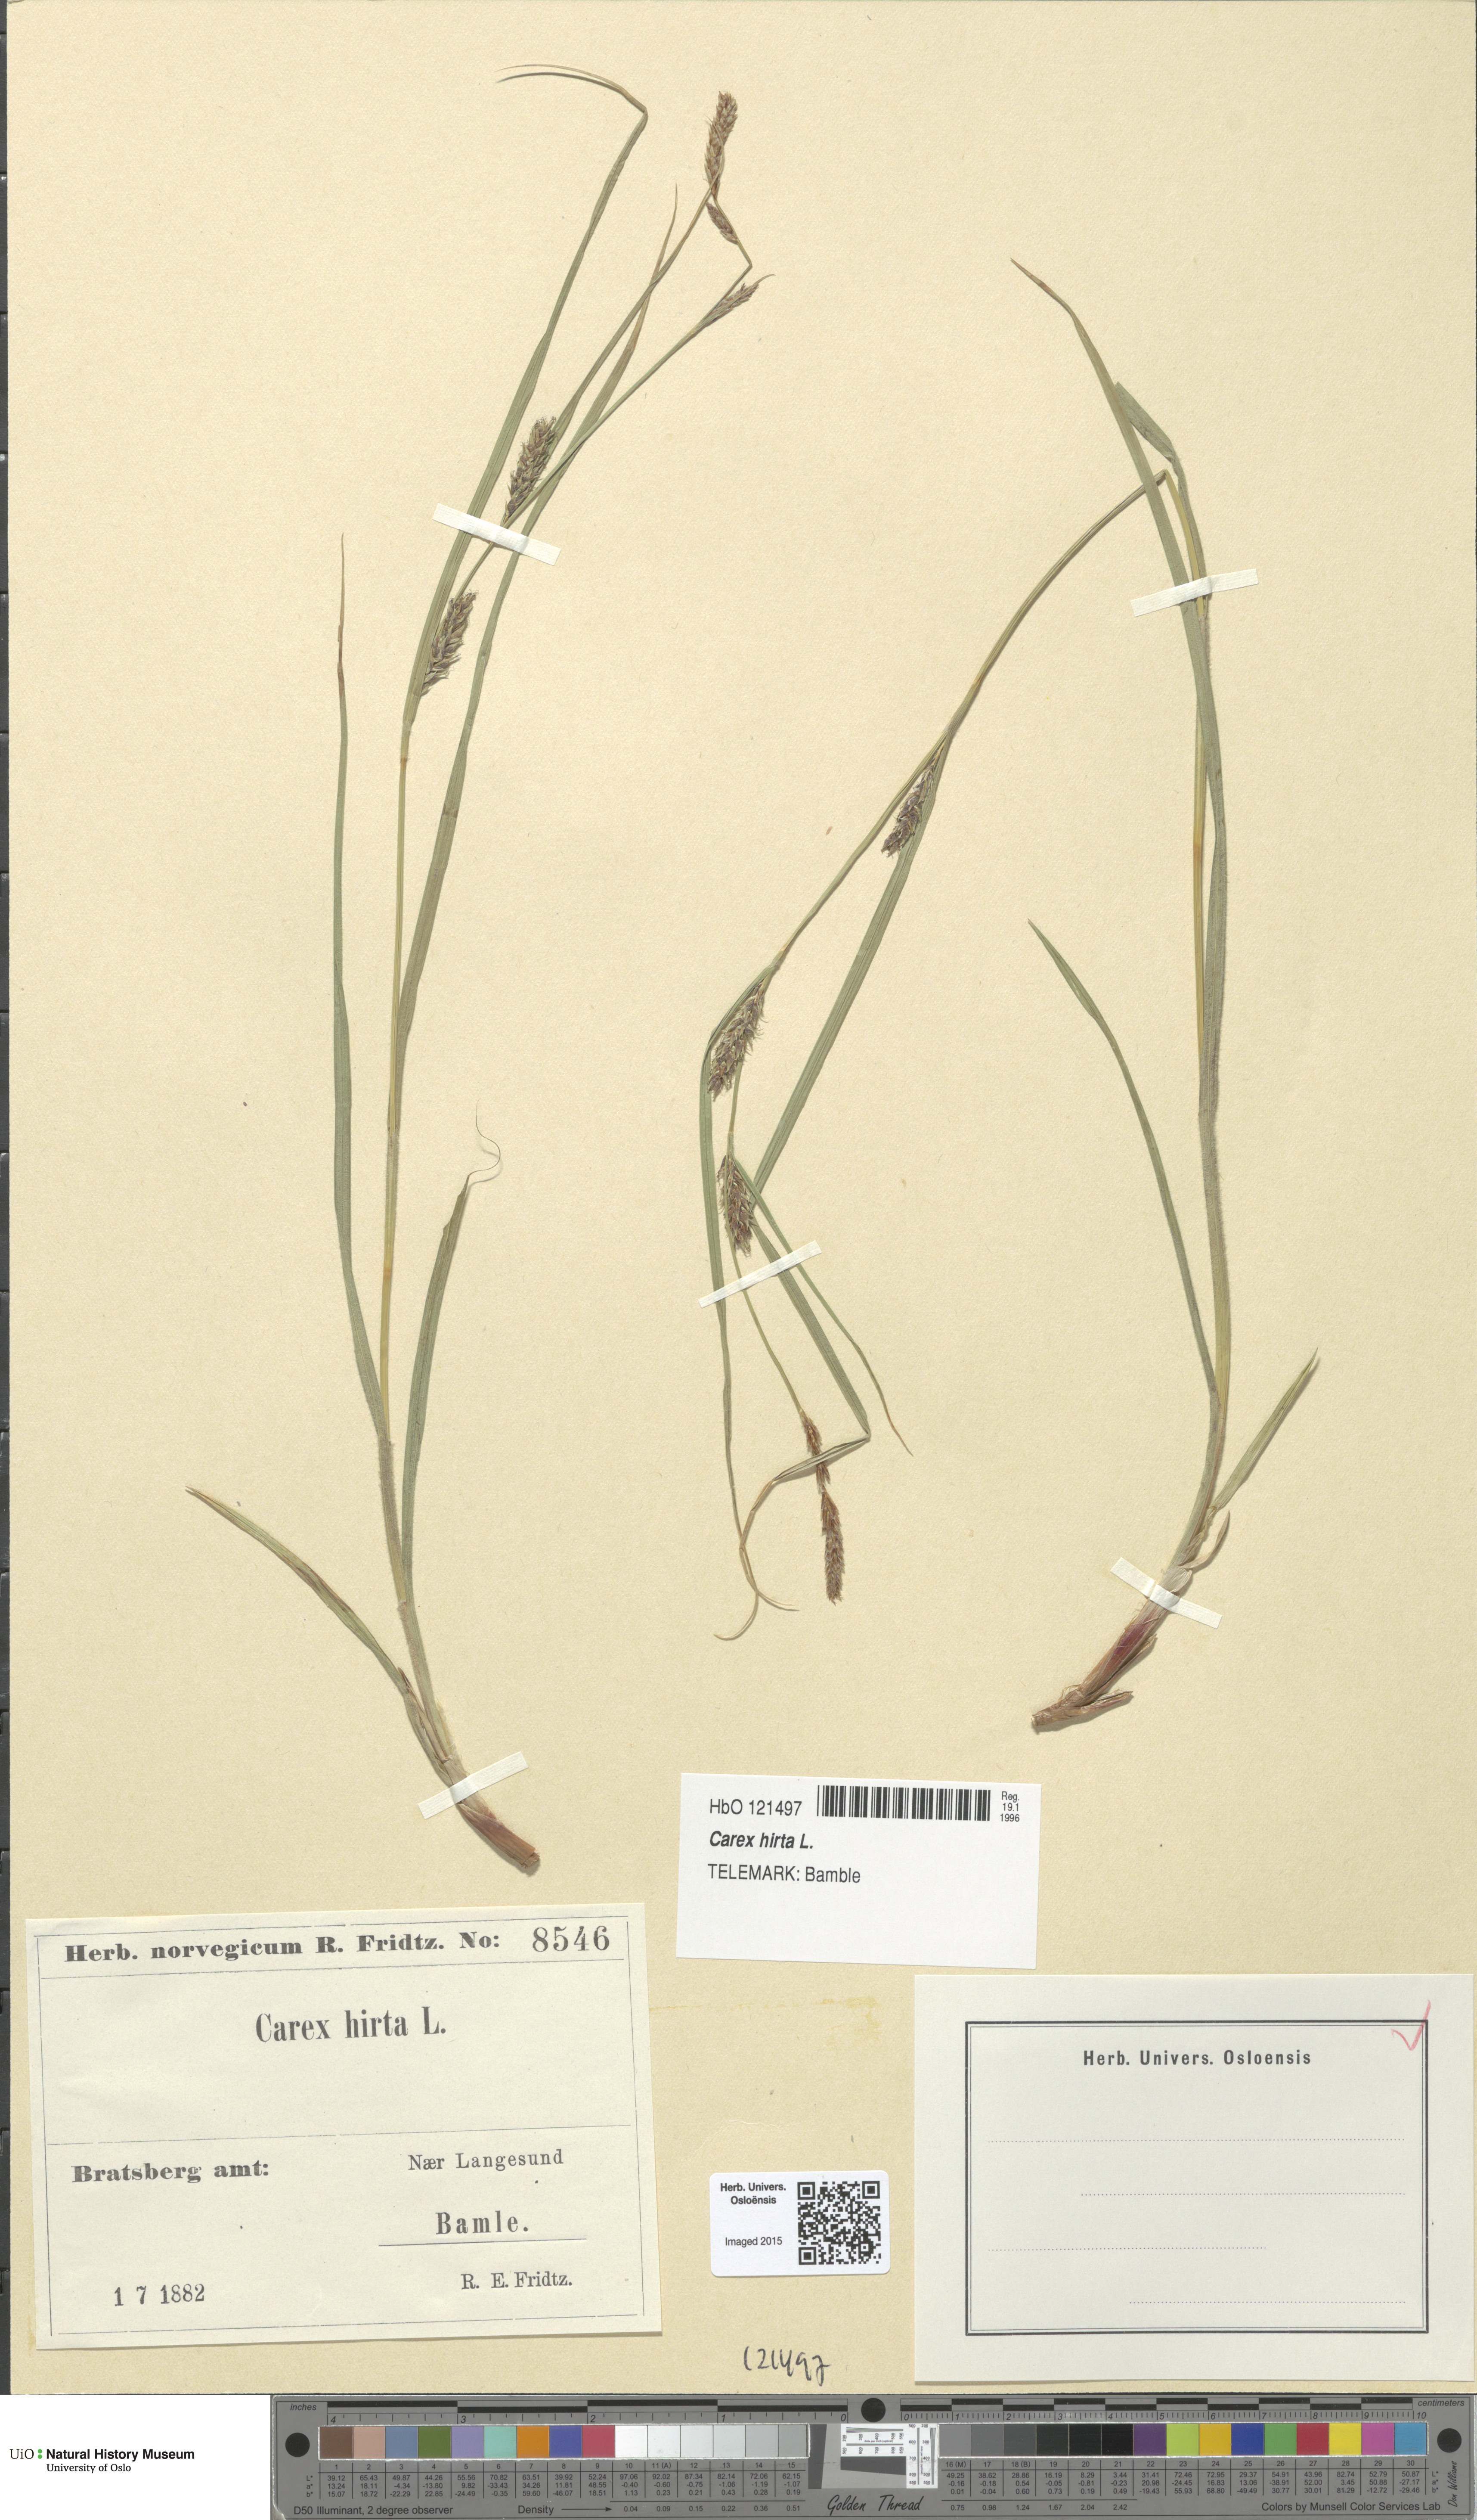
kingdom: Plantae
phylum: Tracheophyta
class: Liliopsida
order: Poales
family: Cyperaceae
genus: Carex
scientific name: Carex hirta
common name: Hairy sedge
